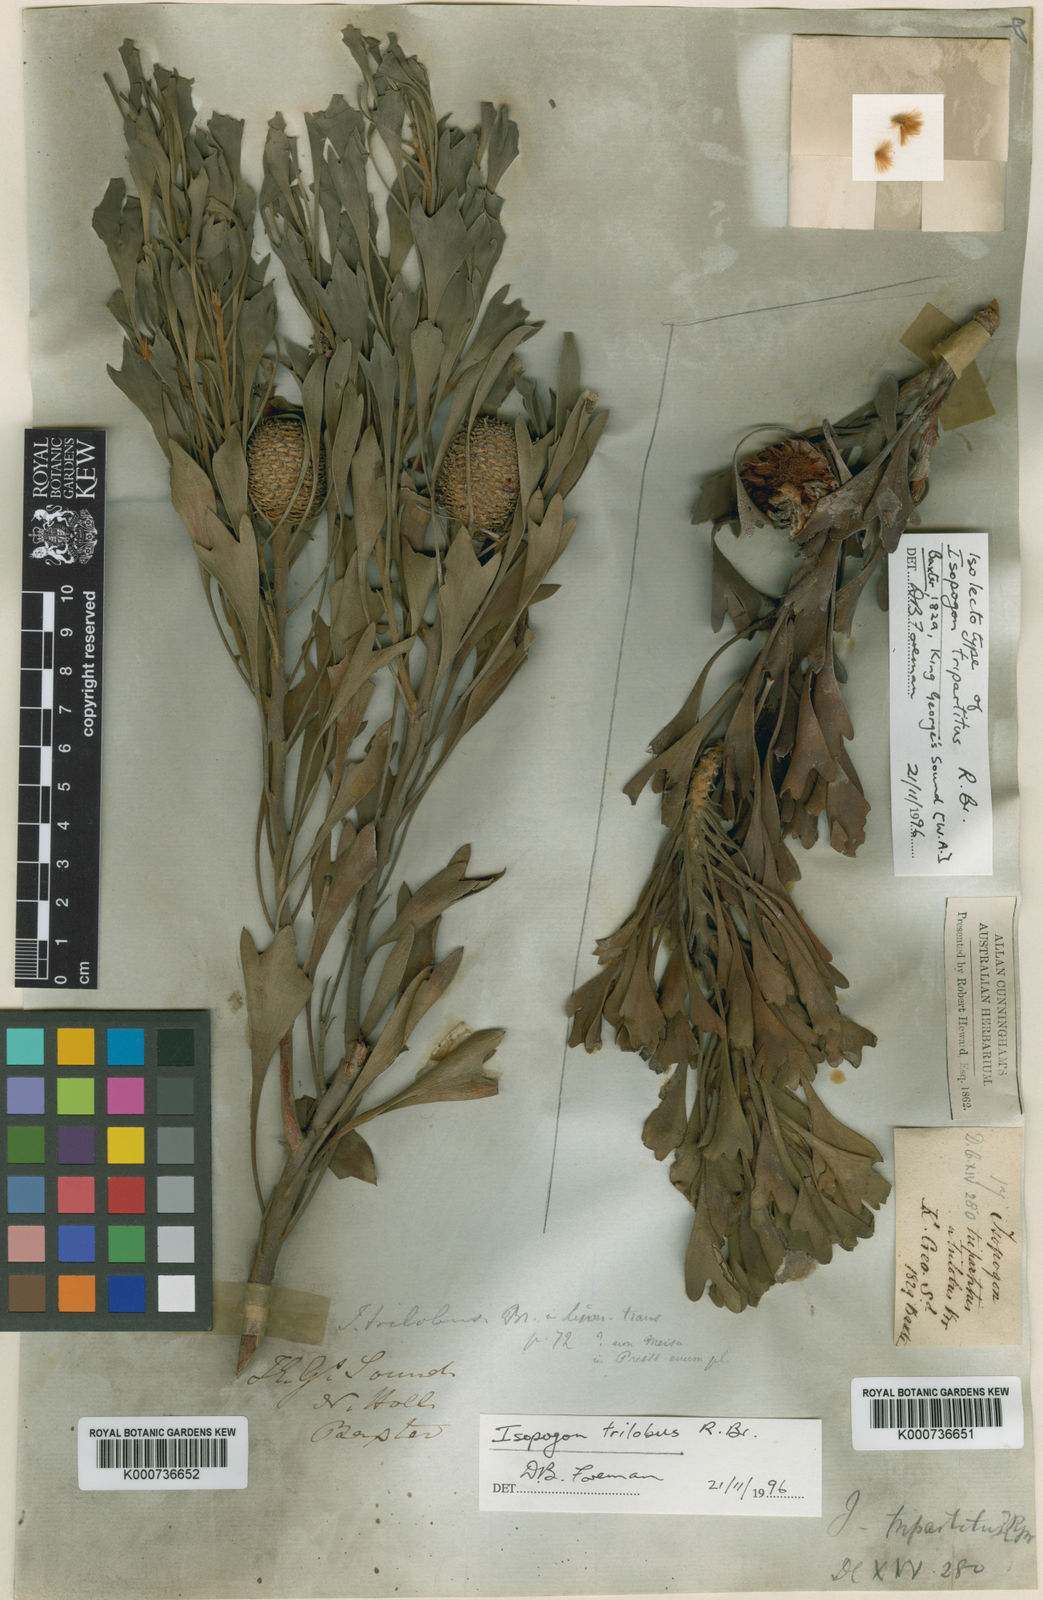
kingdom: Plantae
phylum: Tracheophyta
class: Magnoliopsida
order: Proteales
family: Proteaceae
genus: Isopogon
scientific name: Isopogon trilobus
